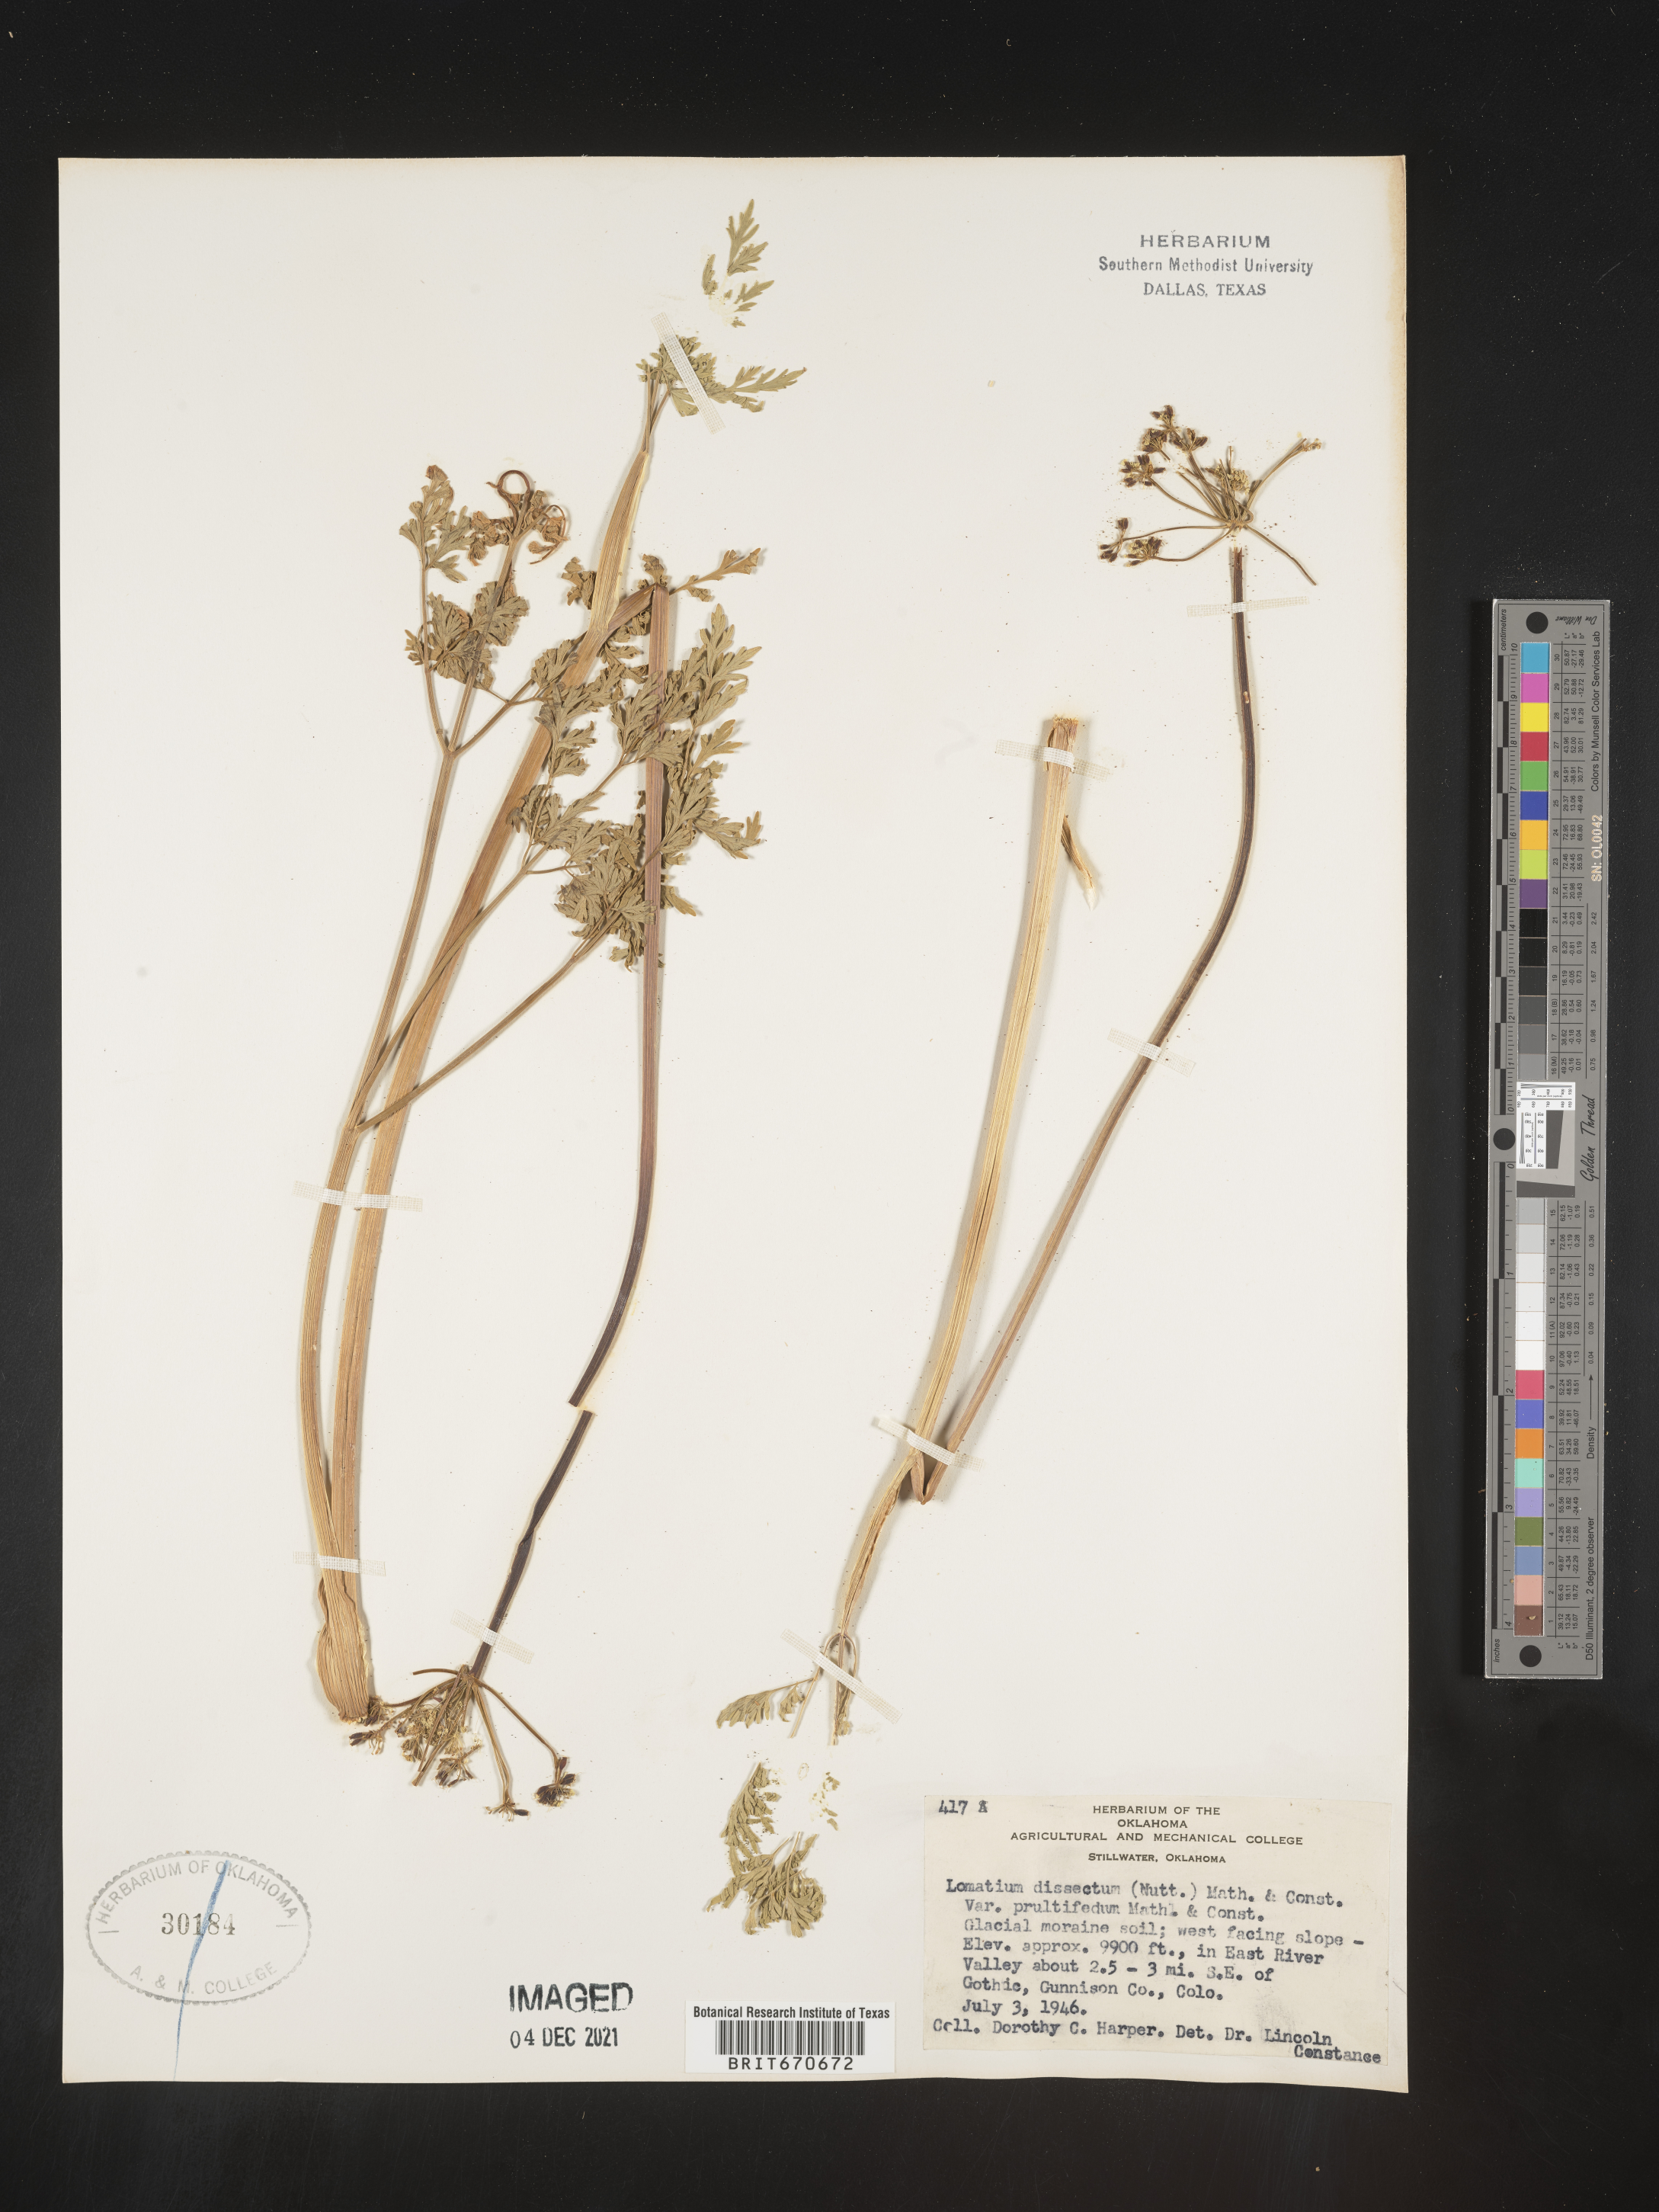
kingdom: Plantae
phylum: Tracheophyta
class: Magnoliopsida
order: Apiales
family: Apiaceae
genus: Lomatium
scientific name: Lomatium dissectum
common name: Lomatium
